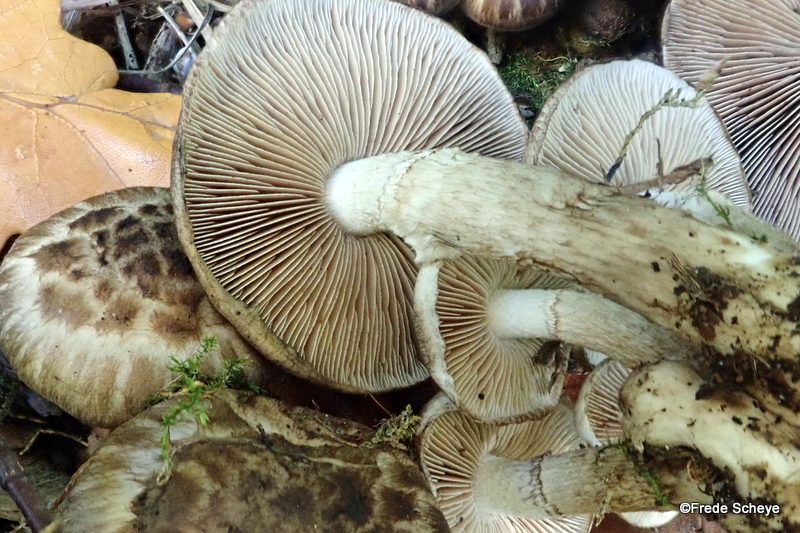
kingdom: Fungi
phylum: Basidiomycota
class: Agaricomycetes
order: Agaricales
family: Psathyrellaceae
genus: Psathyrella
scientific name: Psathyrella maculata
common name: sortskællet mørkhat
